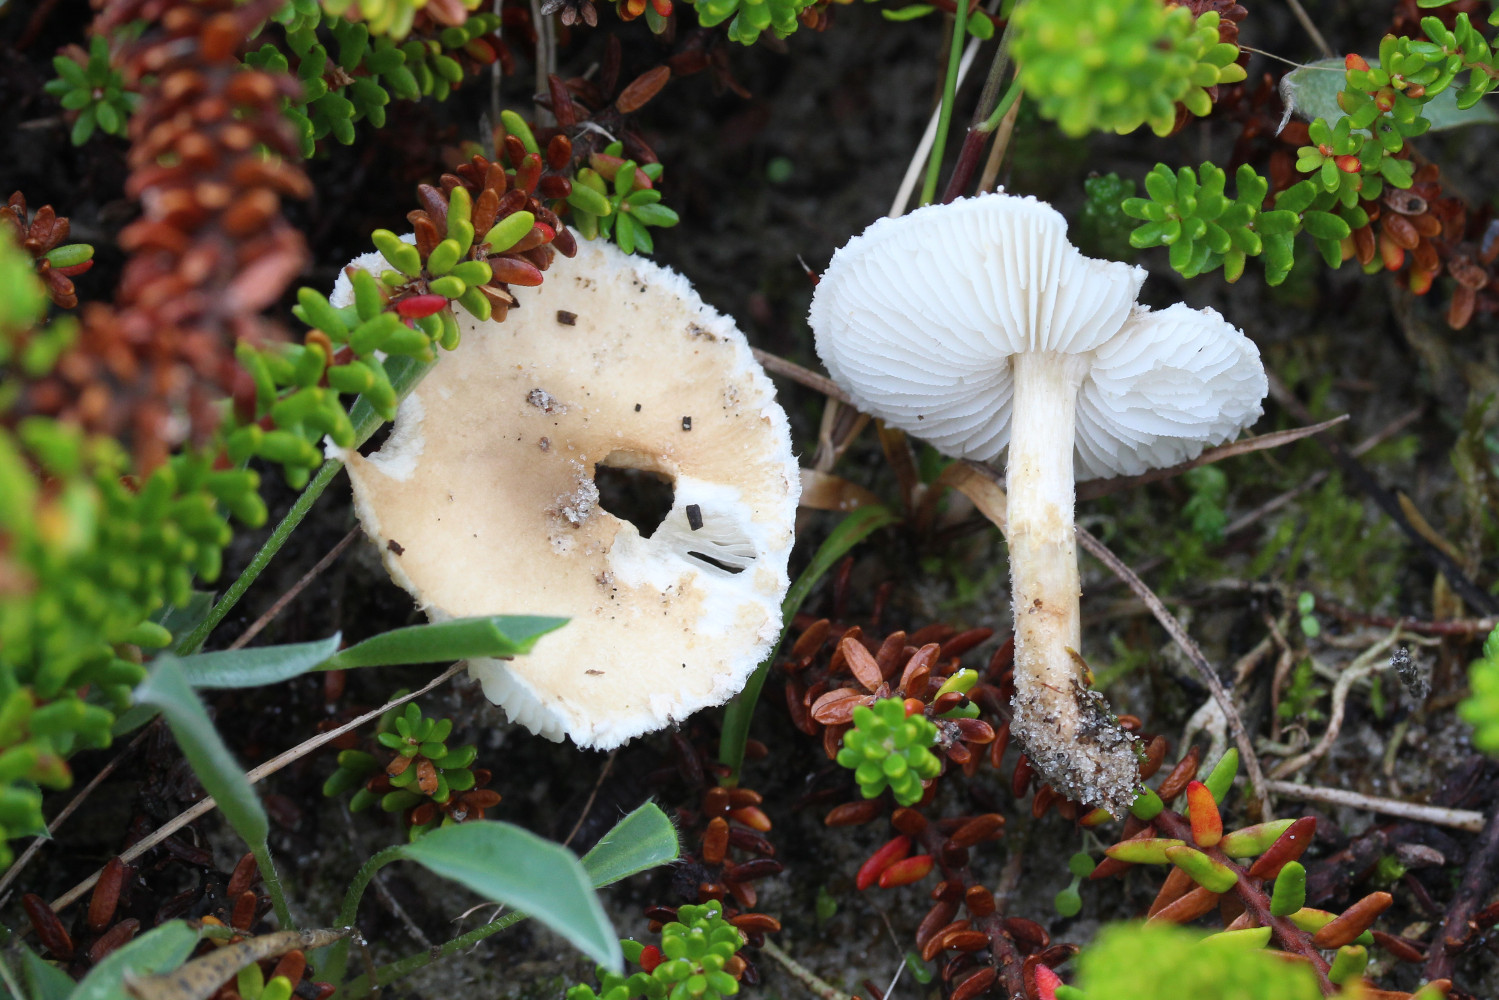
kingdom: Fungi
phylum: Basidiomycota
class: Agaricomycetes
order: Agaricales
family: Agaricaceae
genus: Lepiota
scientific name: Lepiota erminea
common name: hvid parasolhat
